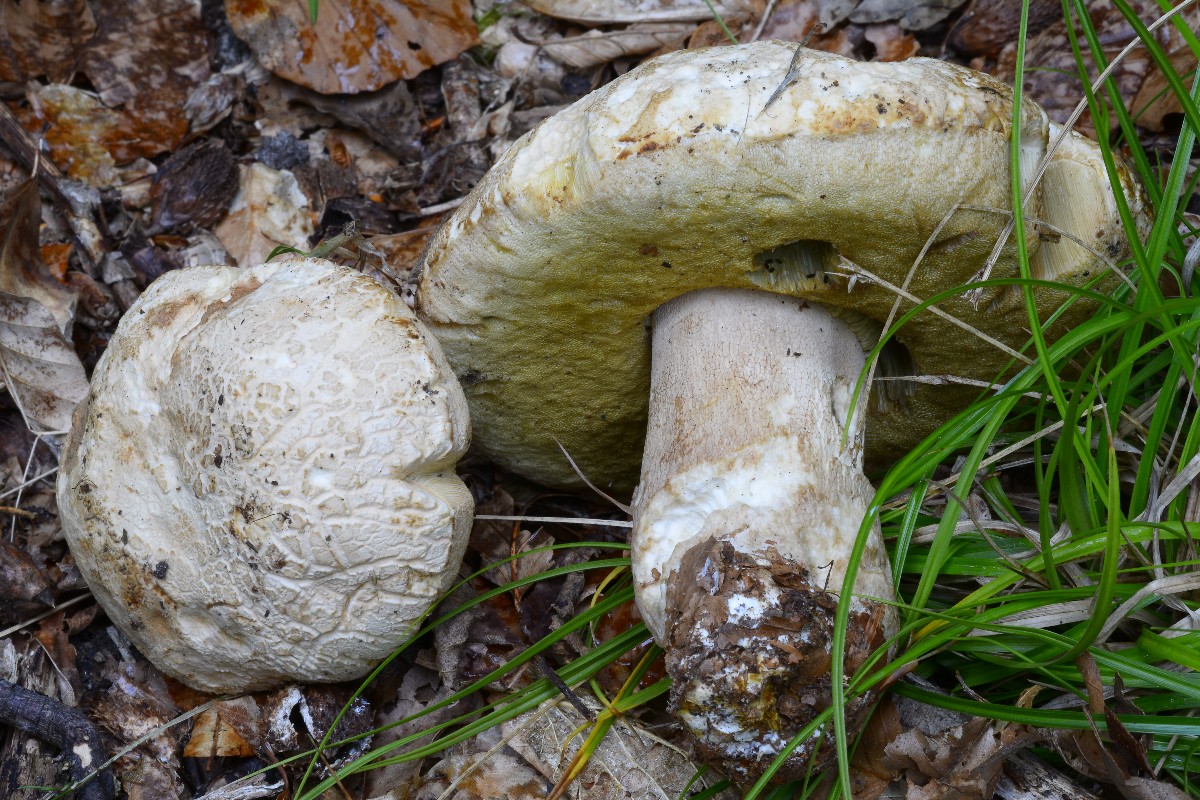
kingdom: Fungi
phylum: Basidiomycota
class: Agaricomycetes
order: Boletales
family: Boletaceae
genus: Boletus
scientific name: Boletus reticulatus
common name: sommer-rørhat
